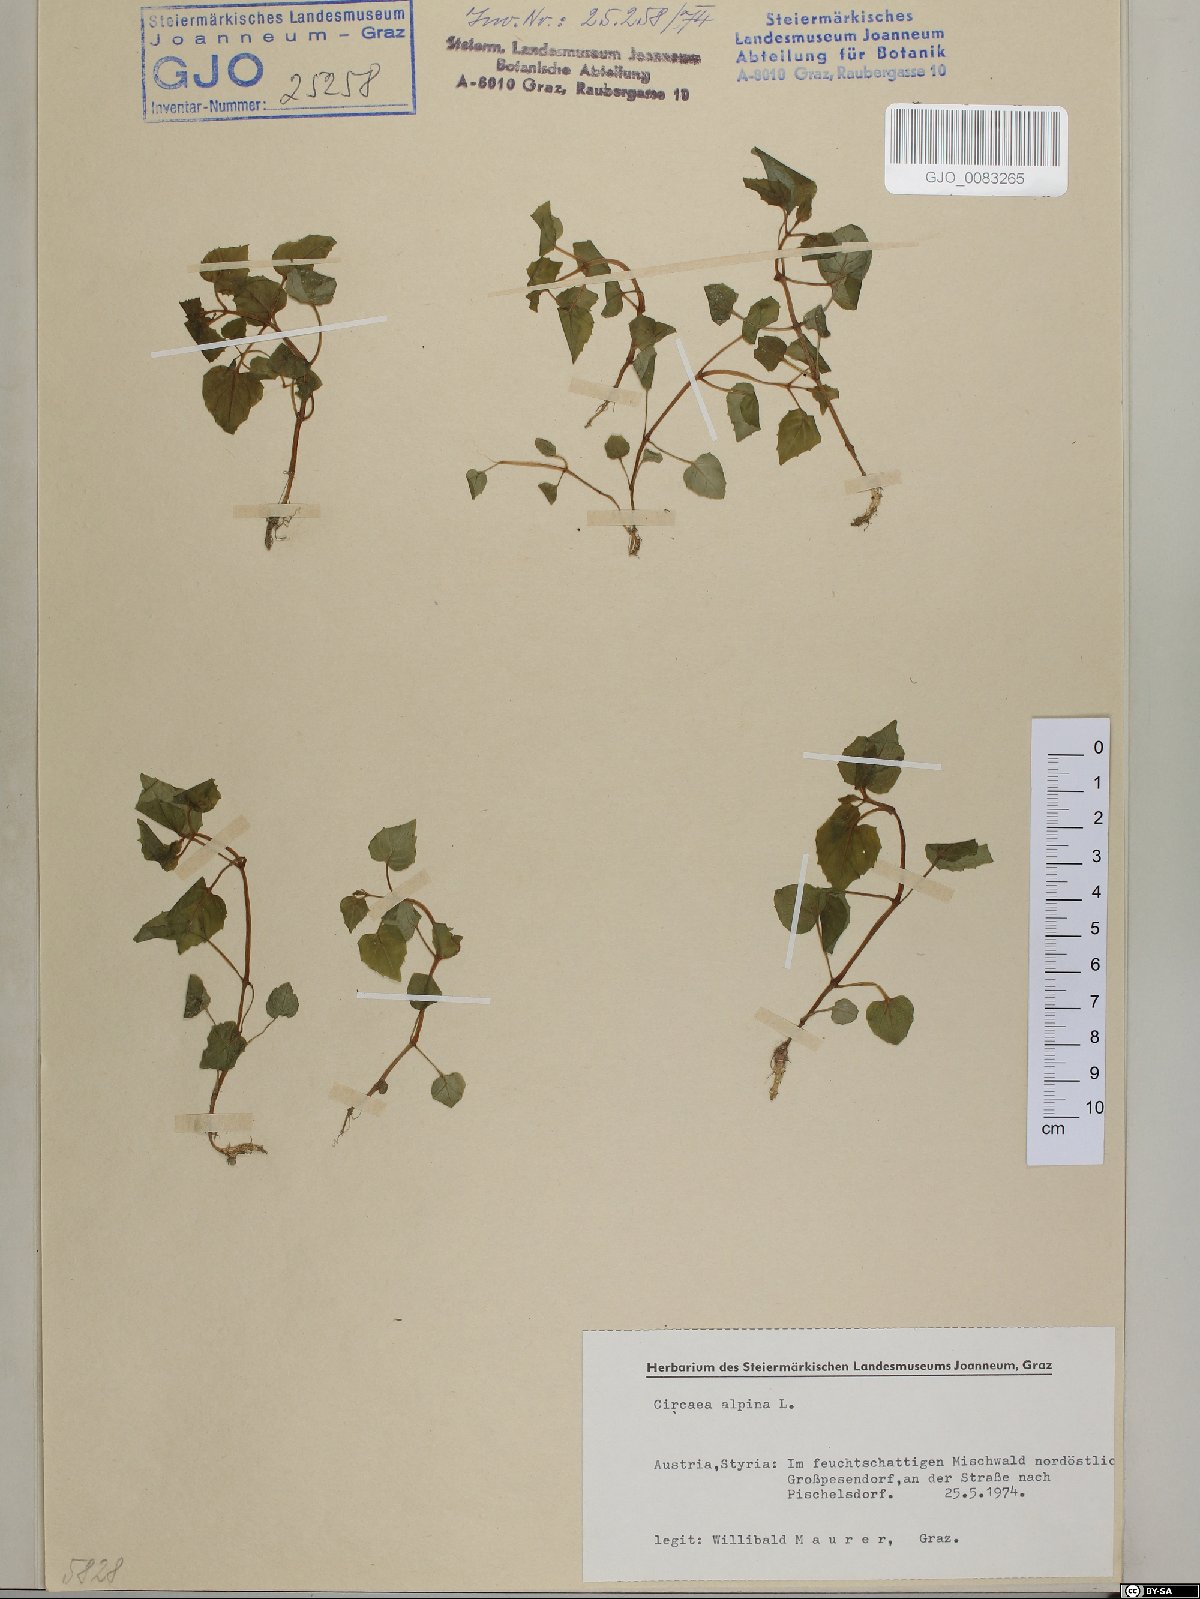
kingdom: Plantae
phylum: Tracheophyta
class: Magnoliopsida
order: Myrtales
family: Onagraceae
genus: Circaea
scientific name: Circaea alpina
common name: Alpine enchanter's-nightshade
